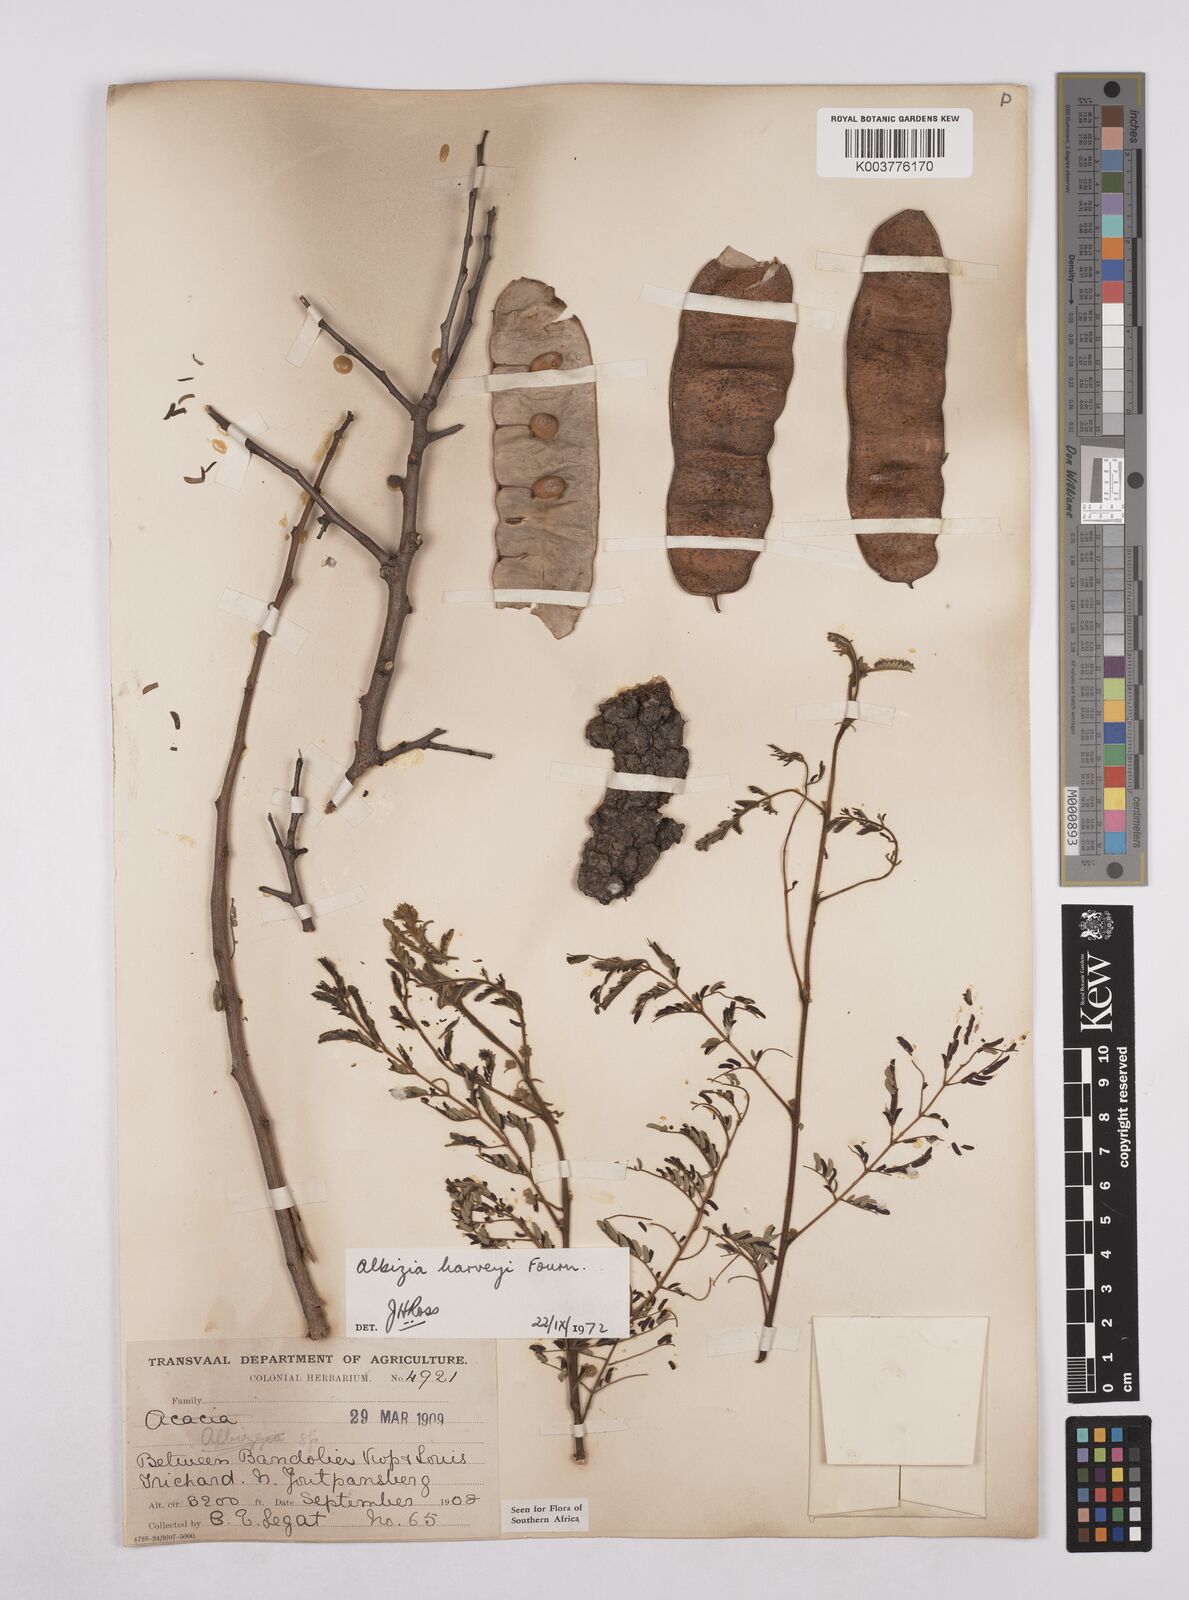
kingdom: Plantae
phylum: Tracheophyta
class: Magnoliopsida
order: Fabales
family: Fabaceae
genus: Albizia
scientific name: Albizia harveyi
